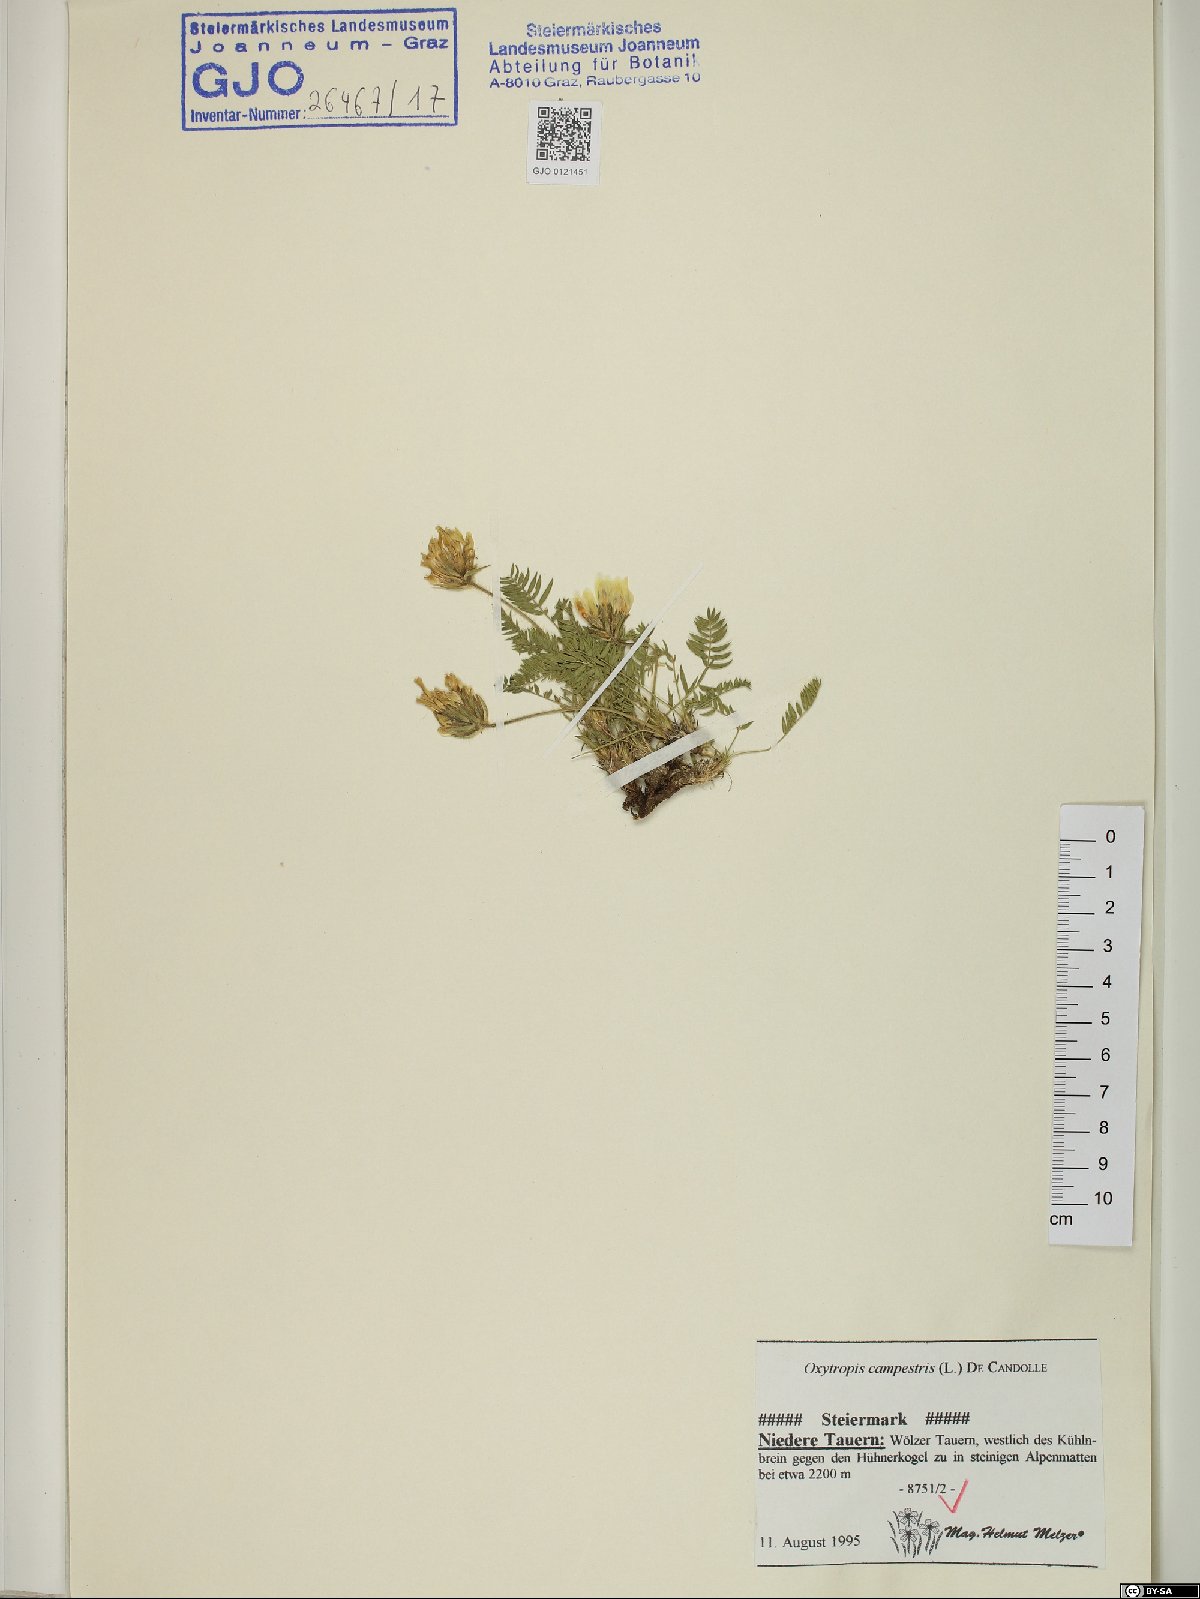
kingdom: Plantae
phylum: Tracheophyta
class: Magnoliopsida
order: Fabales
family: Fabaceae
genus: Oxytropis
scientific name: Oxytropis campestris
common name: Field locoweed
